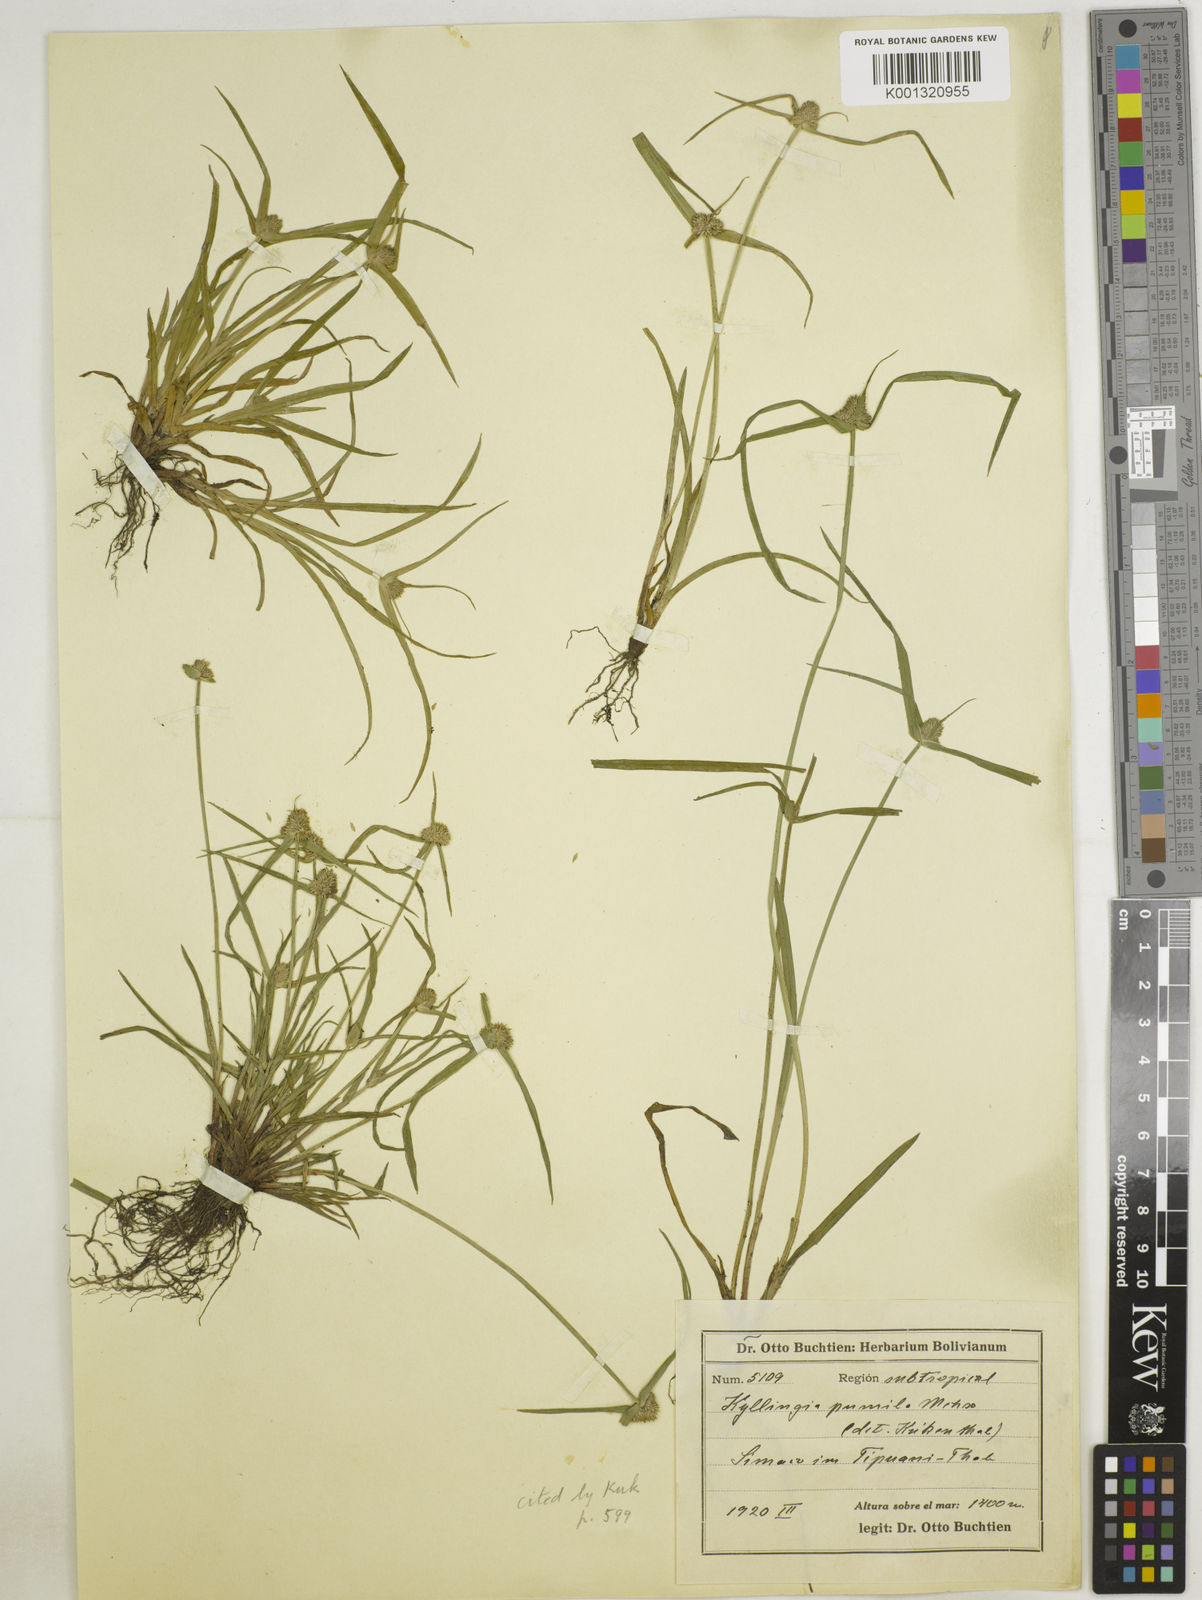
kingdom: Plantae
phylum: Tracheophyta
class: Liliopsida
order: Poales
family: Cyperaceae
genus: Cyperus
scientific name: Cyperus
